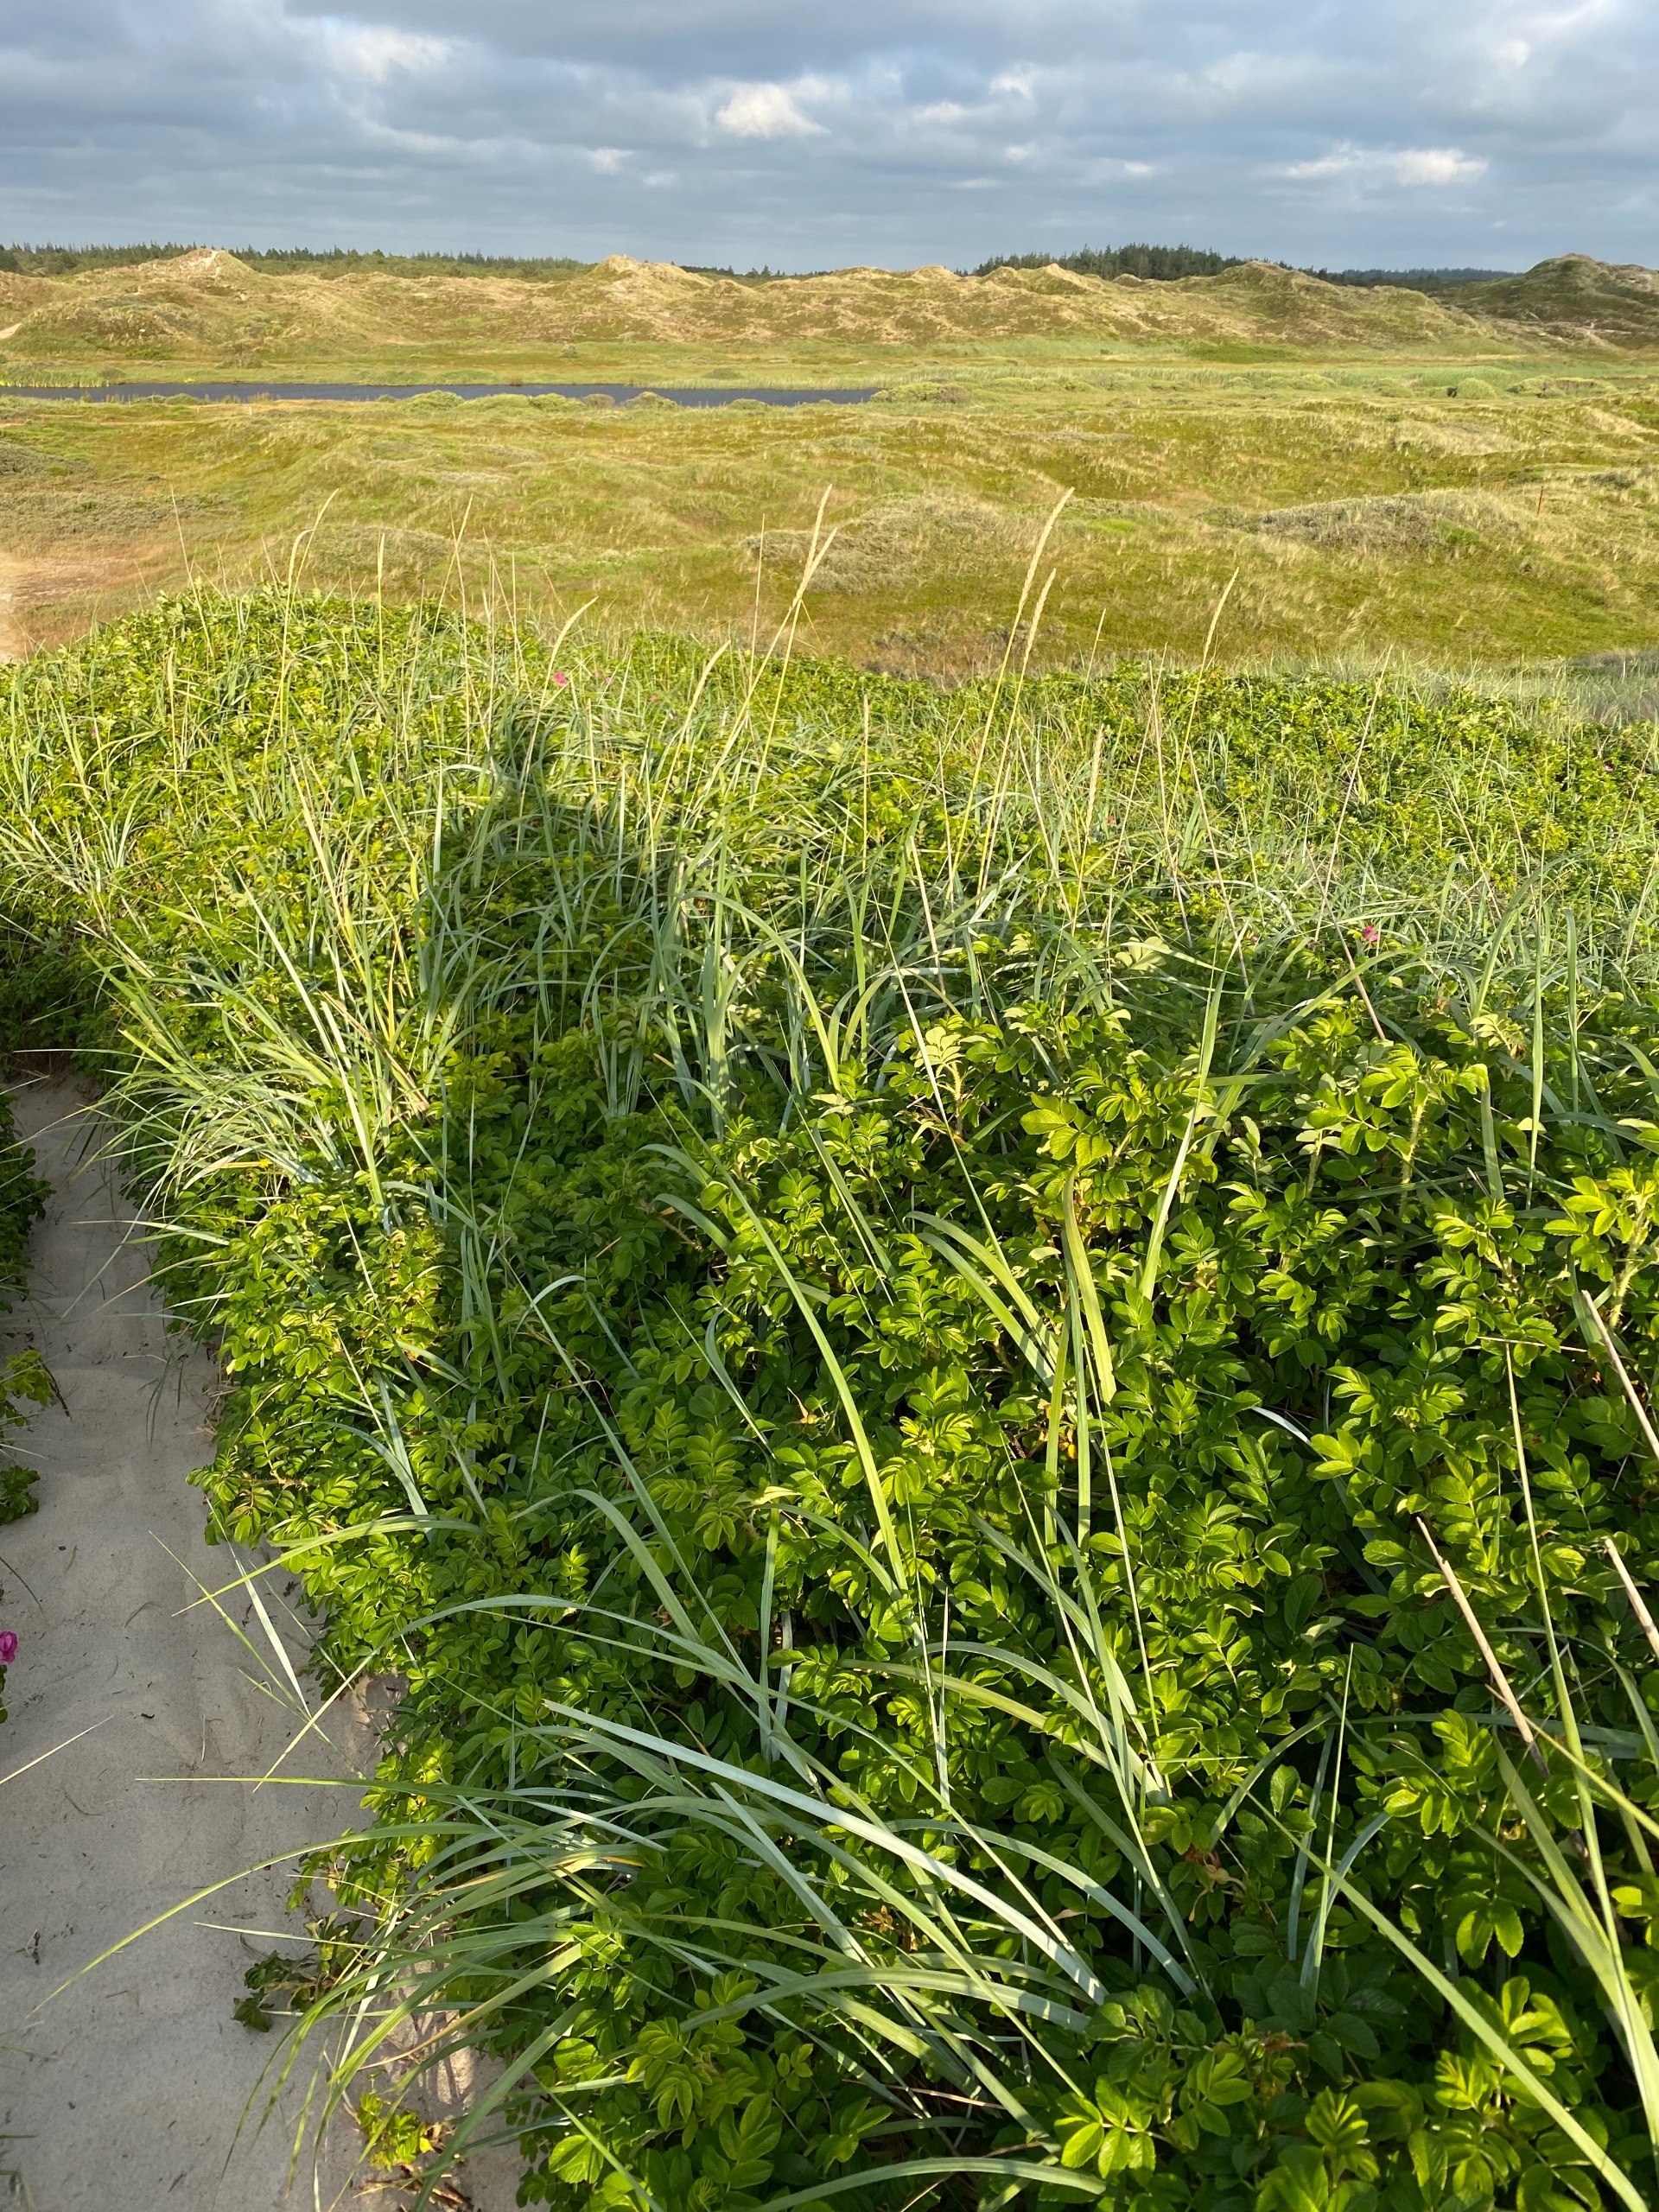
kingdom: Plantae
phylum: Tracheophyta
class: Magnoliopsida
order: Rosales
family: Rosaceae
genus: Rosa
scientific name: Rosa rugosa
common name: Rynket rose
